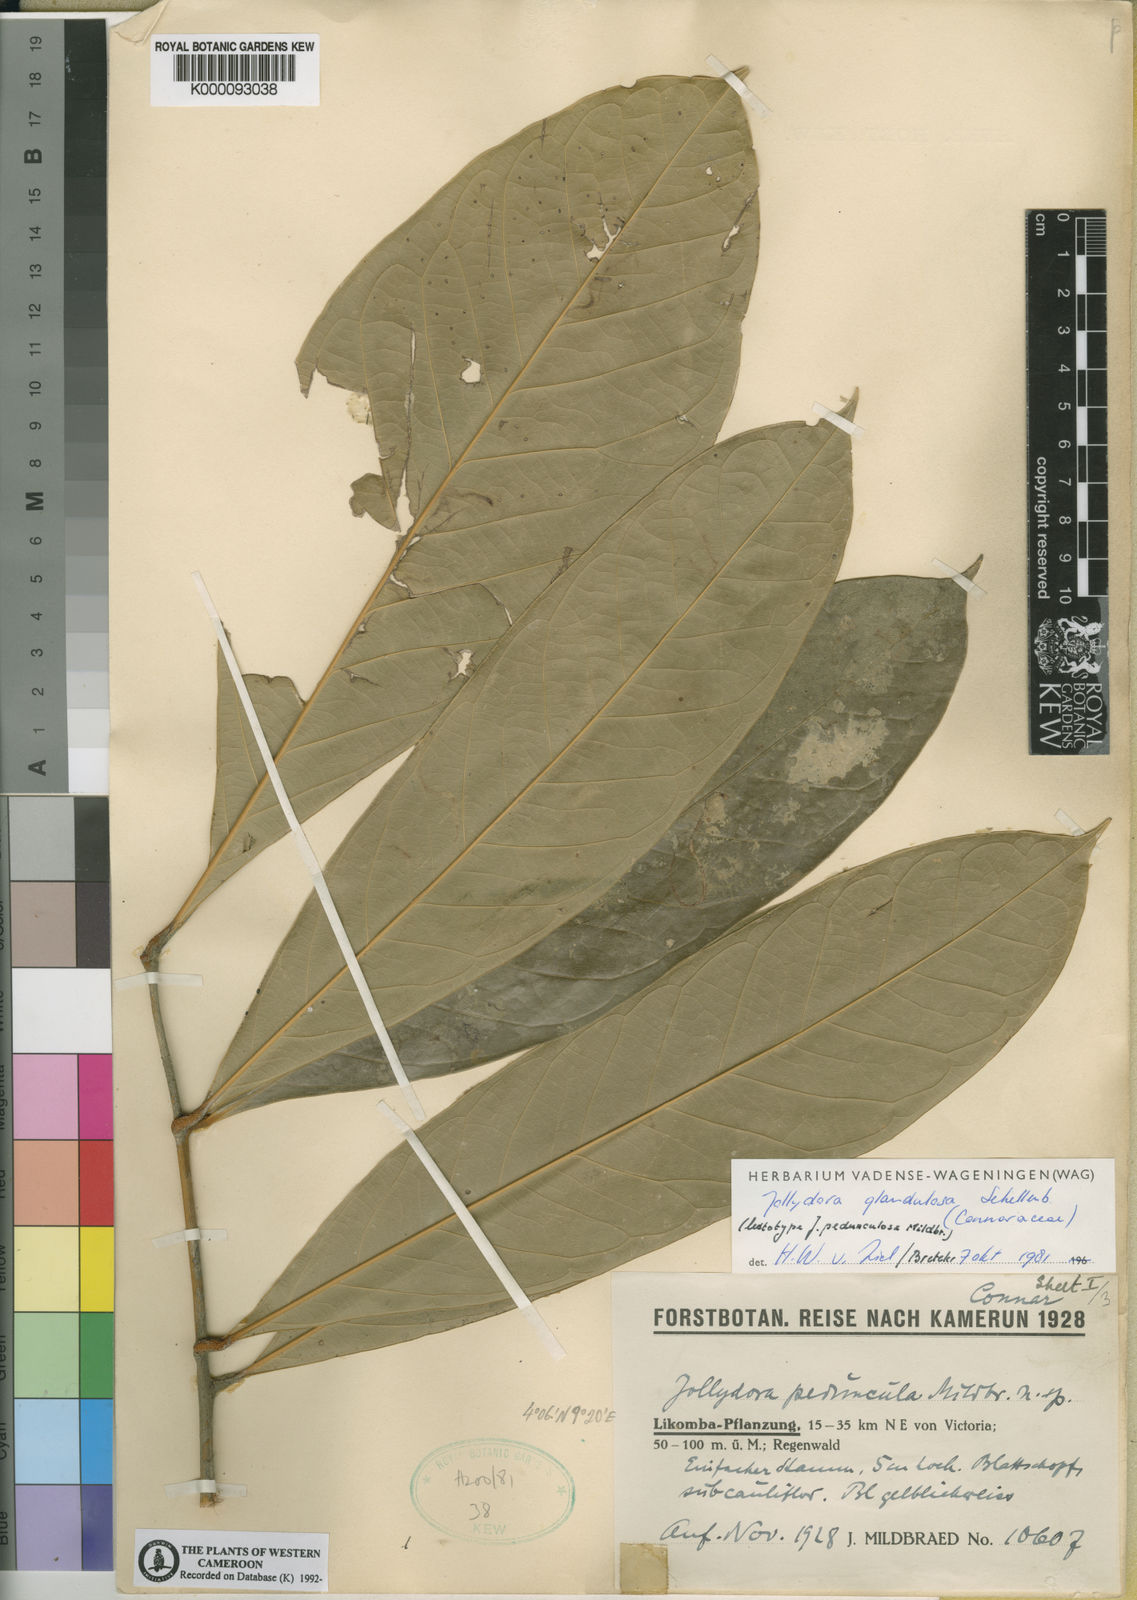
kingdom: Plantae
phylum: Tracheophyta
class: Magnoliopsida
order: Oxalidales
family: Connaraceae
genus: Jollydora
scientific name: Jollydora glandulosa
